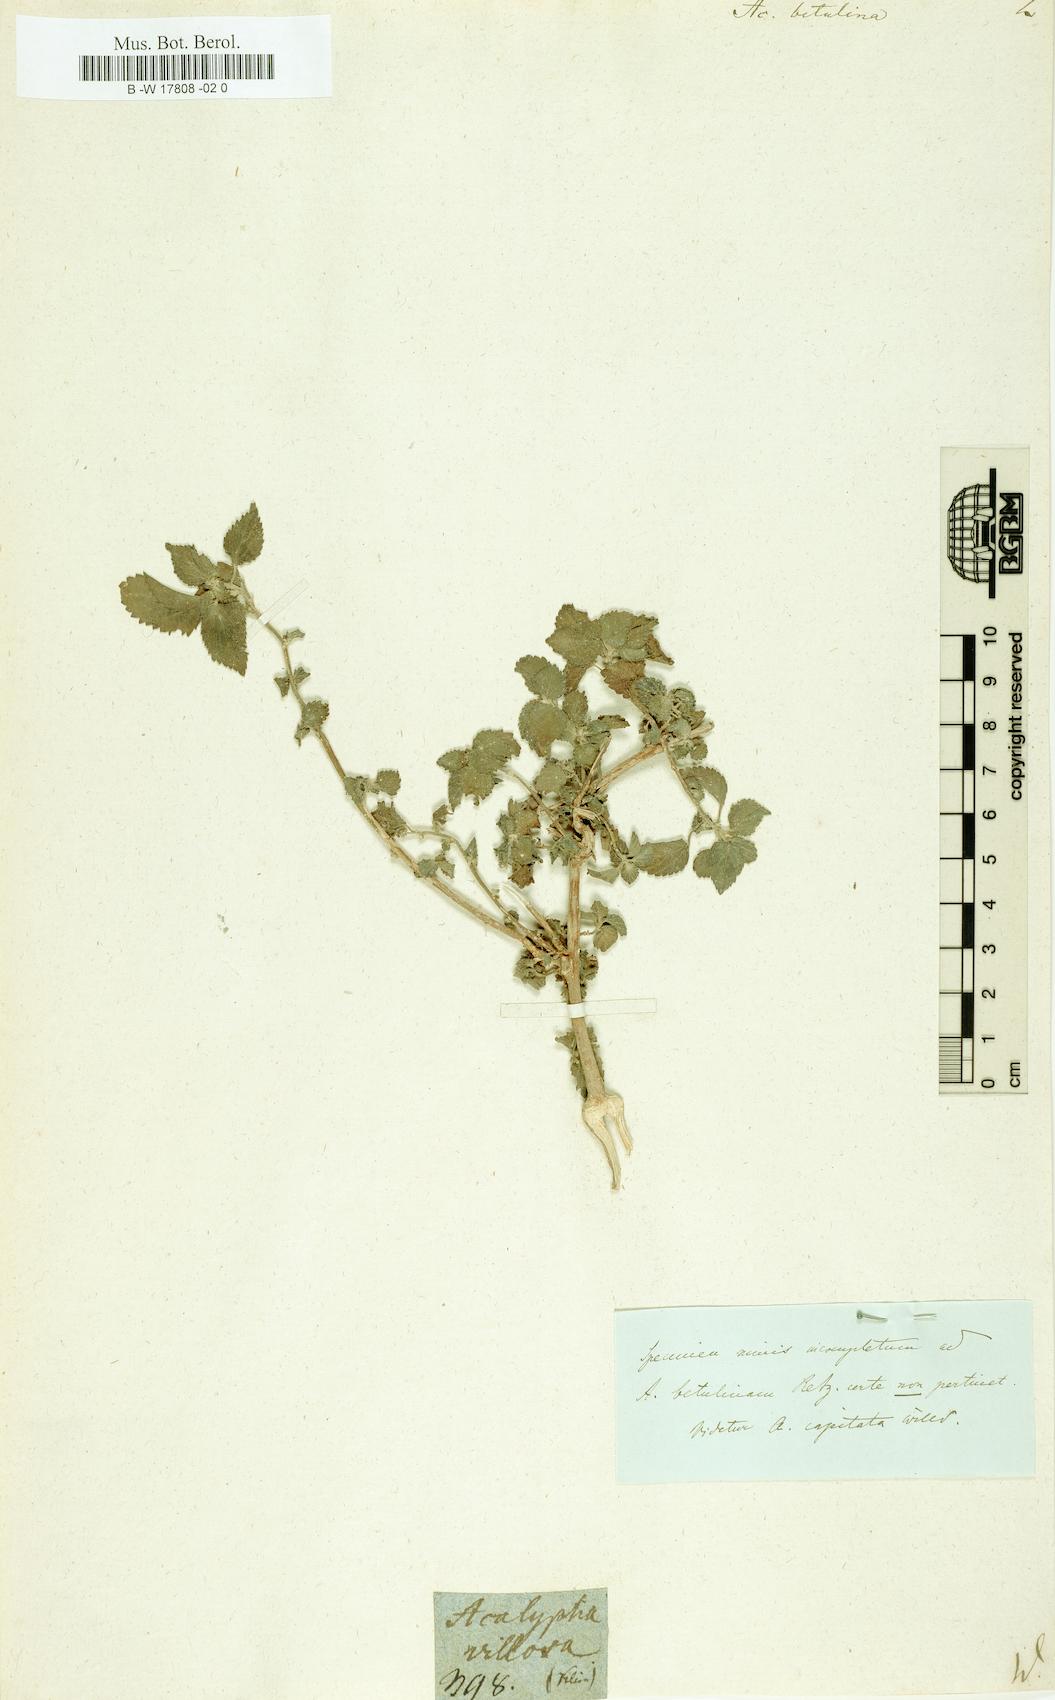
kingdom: Plantae
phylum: Tracheophyta
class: Magnoliopsida
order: Malpighiales
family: Euphorbiaceae
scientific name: Euphorbiaceae
